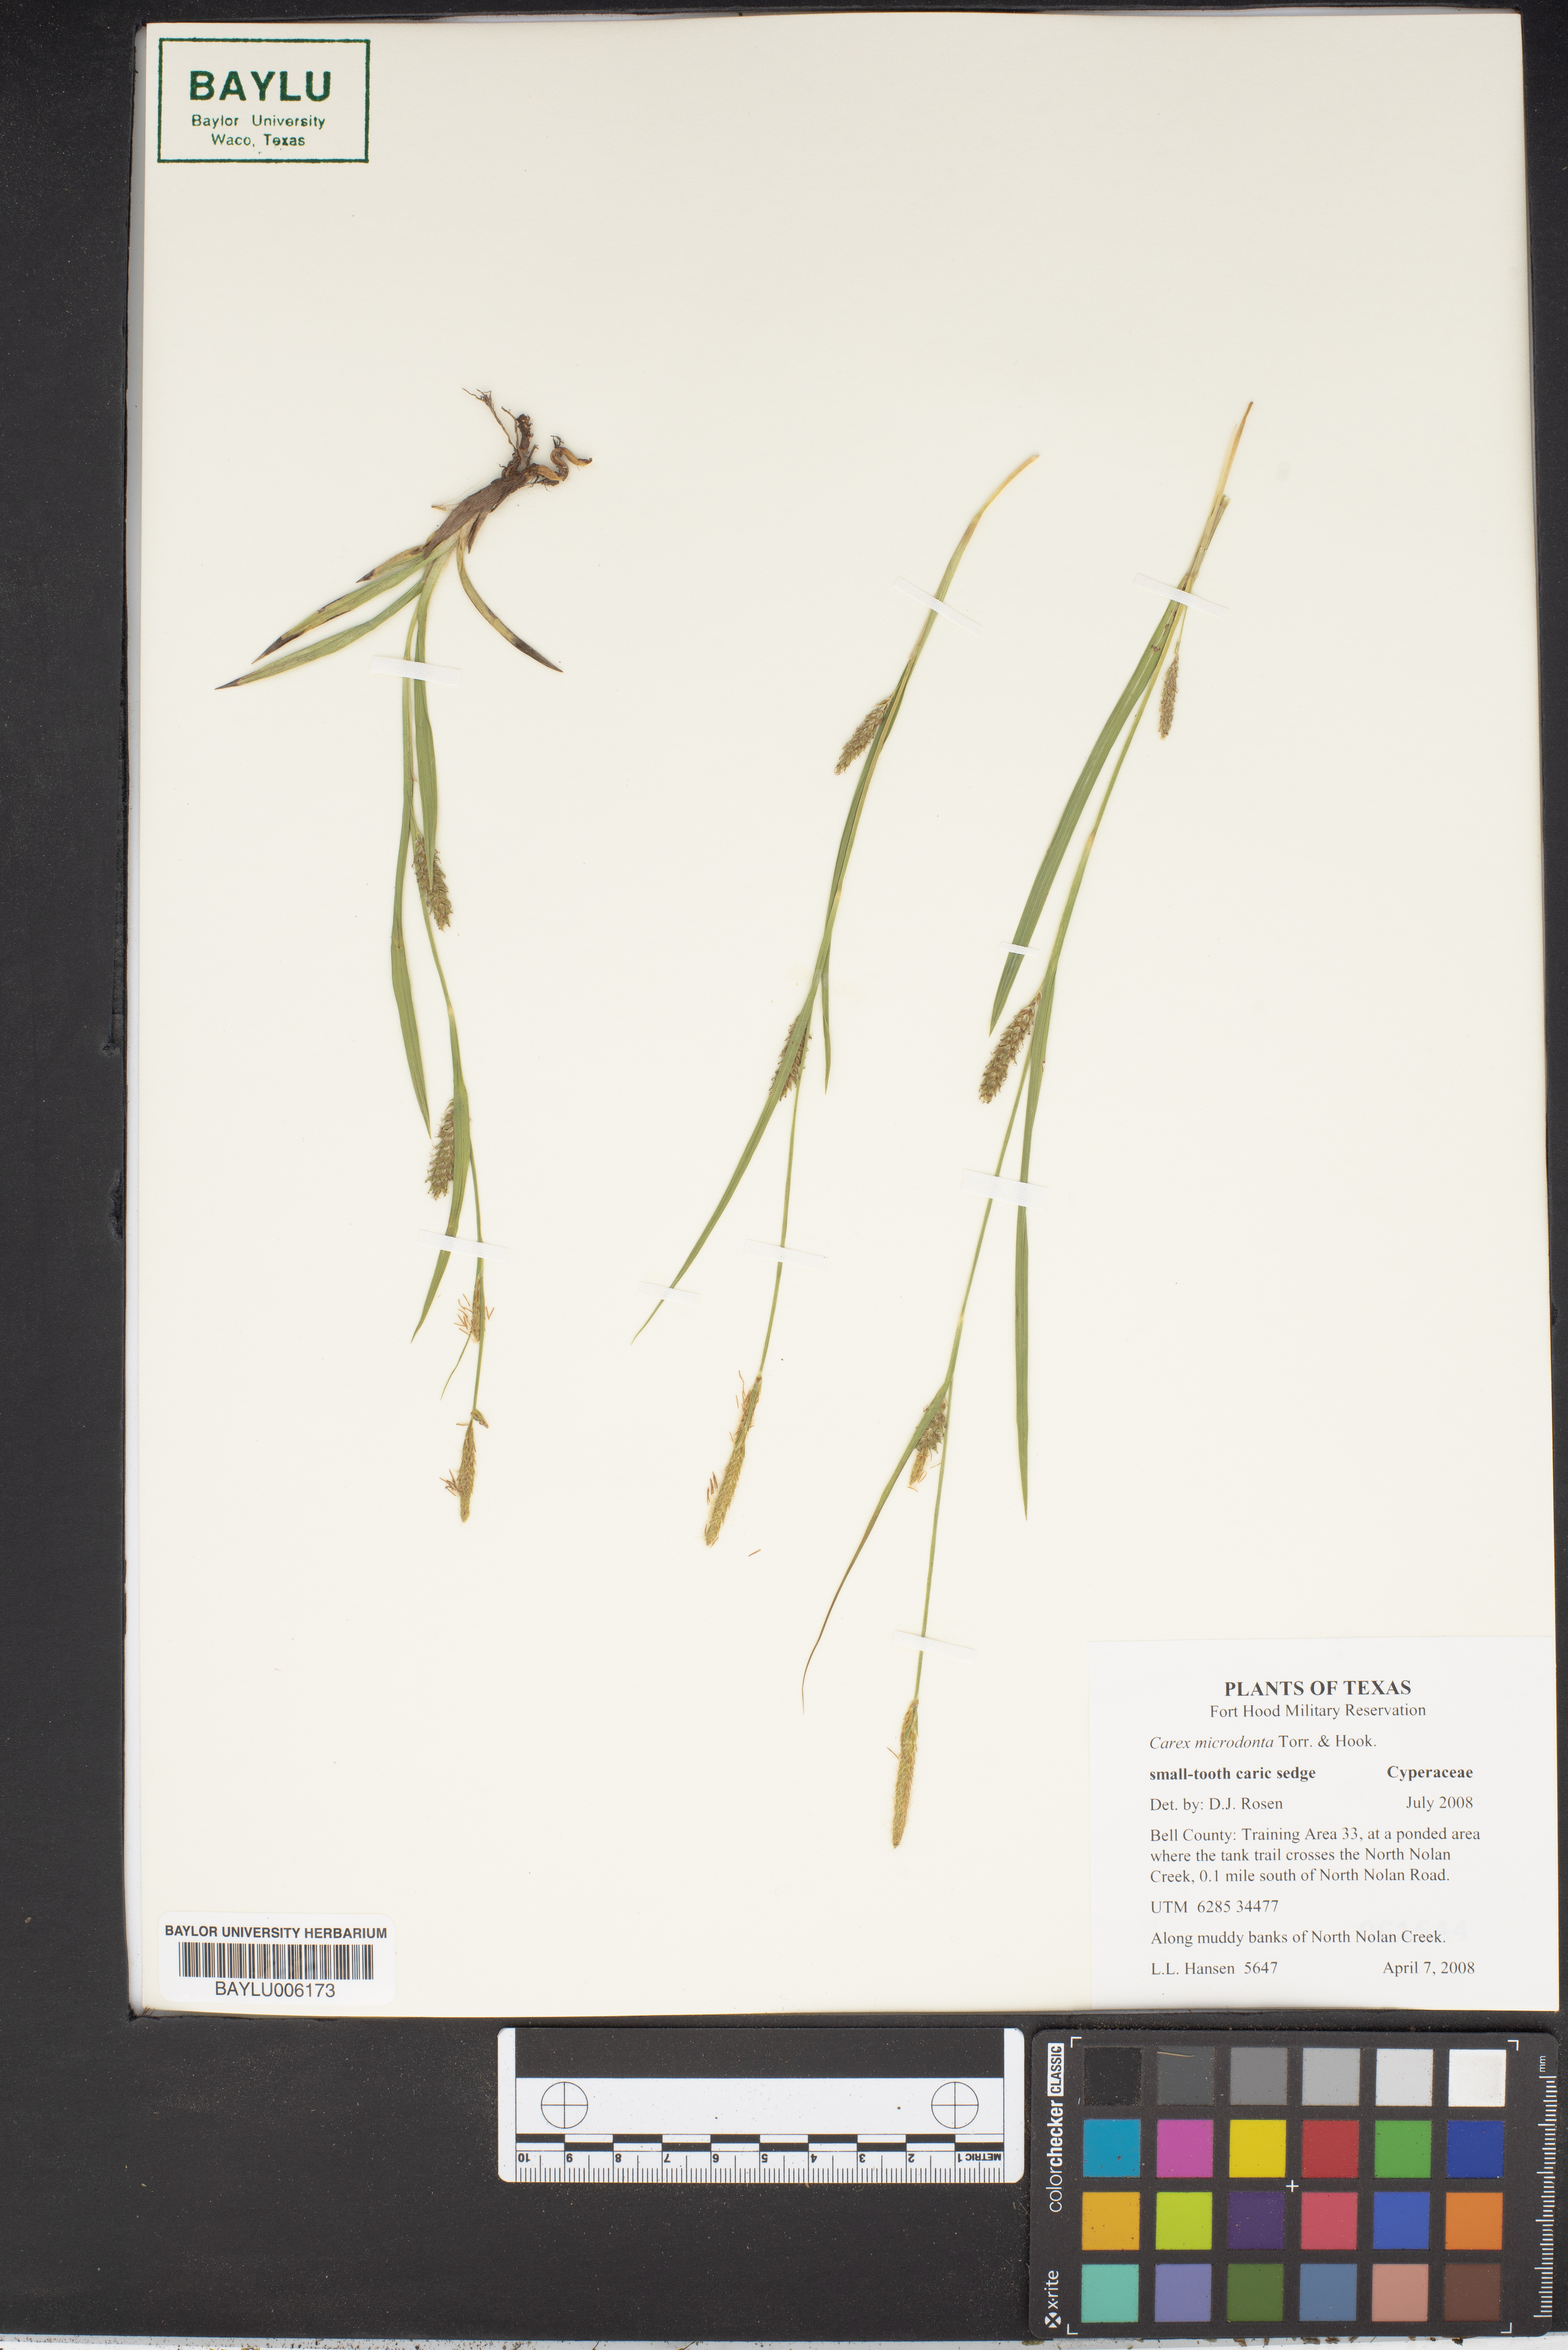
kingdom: Plantae
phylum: Tracheophyta
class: Liliopsida
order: Poales
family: Cyperaceae
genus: Carex
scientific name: Carex microdonta
